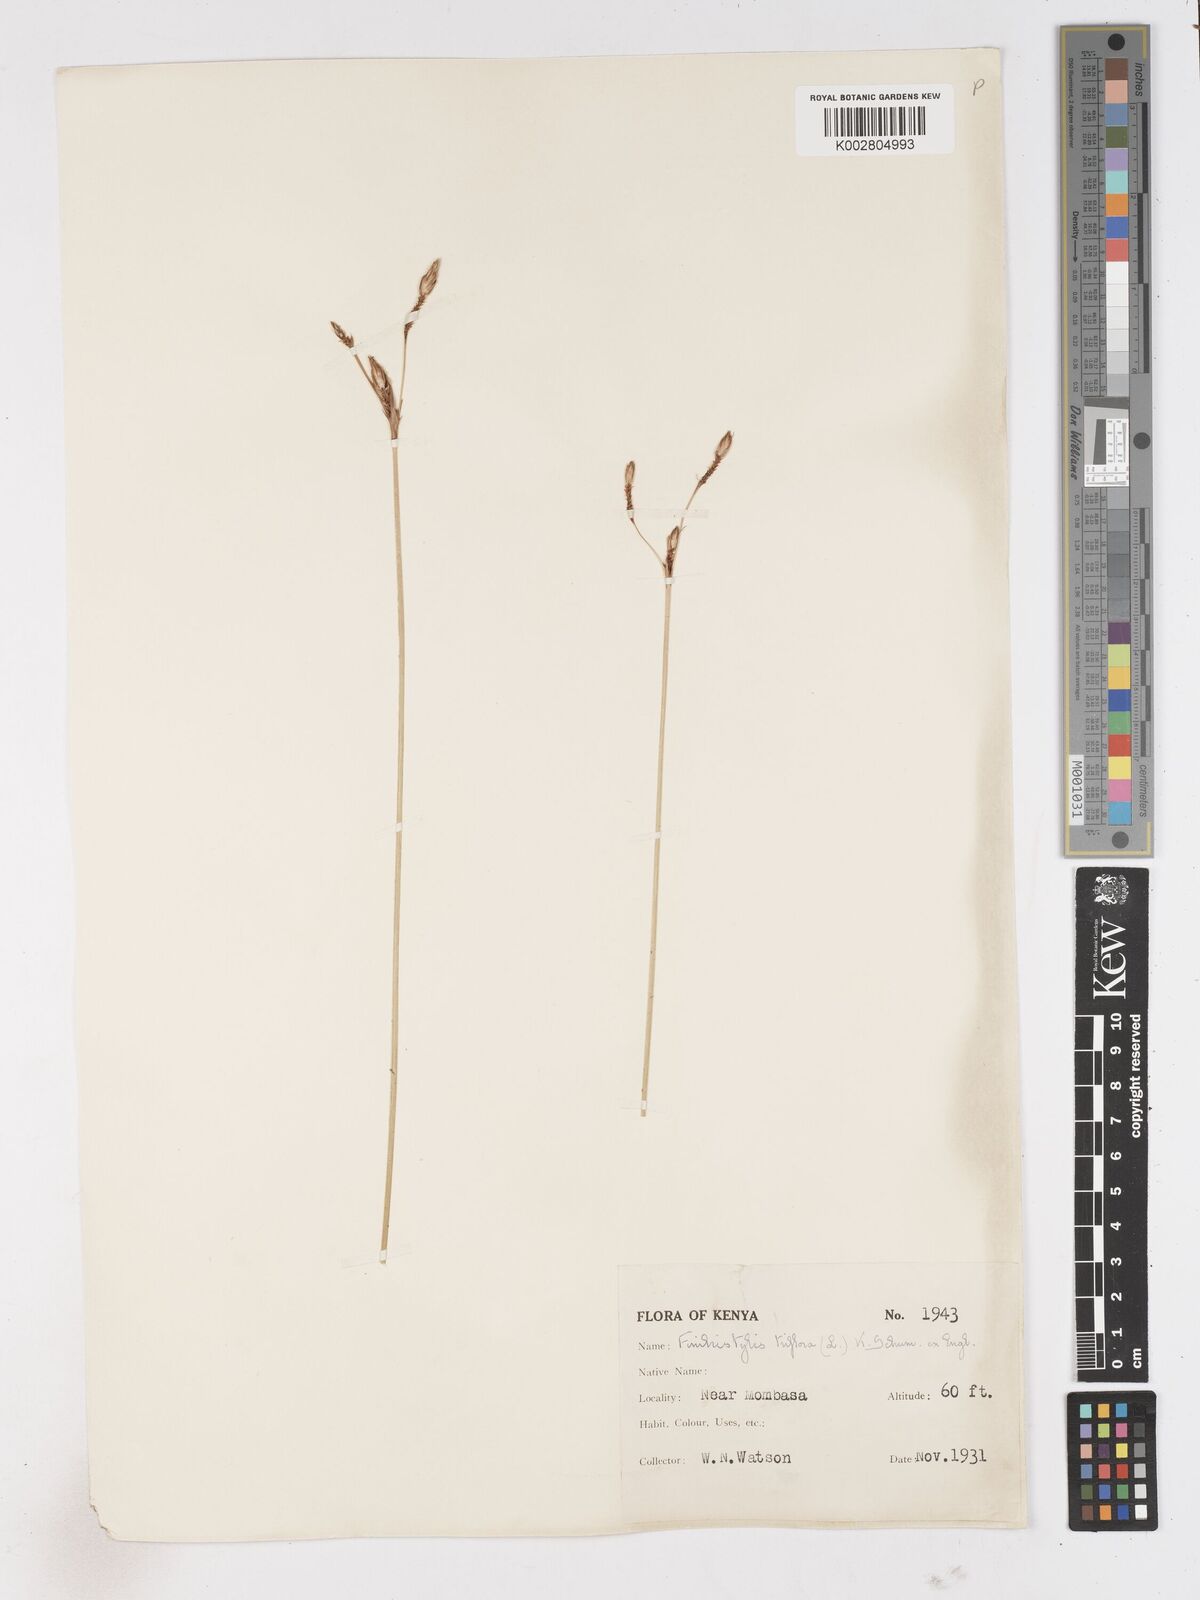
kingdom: Plantae
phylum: Tracheophyta
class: Liliopsida
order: Poales
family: Cyperaceae
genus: Abildgaardia
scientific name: Abildgaardia triflora
